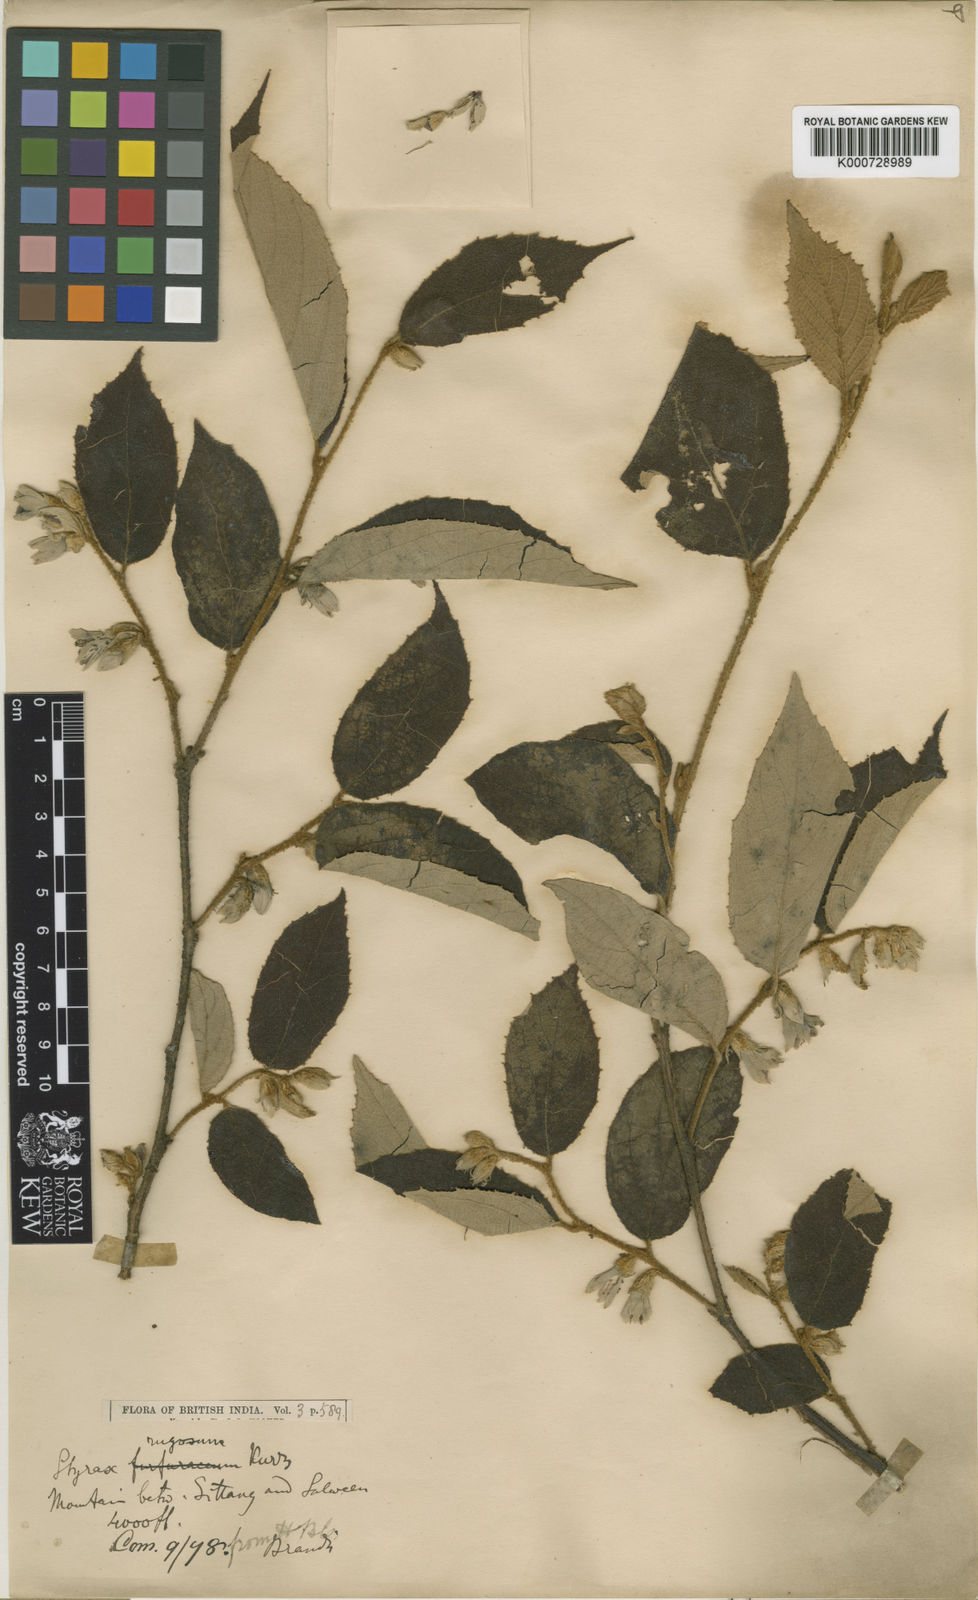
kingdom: Plantae
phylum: Tracheophyta
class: Magnoliopsida
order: Ericales
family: Styracaceae
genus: Styrax
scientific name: Styrax rugosus
